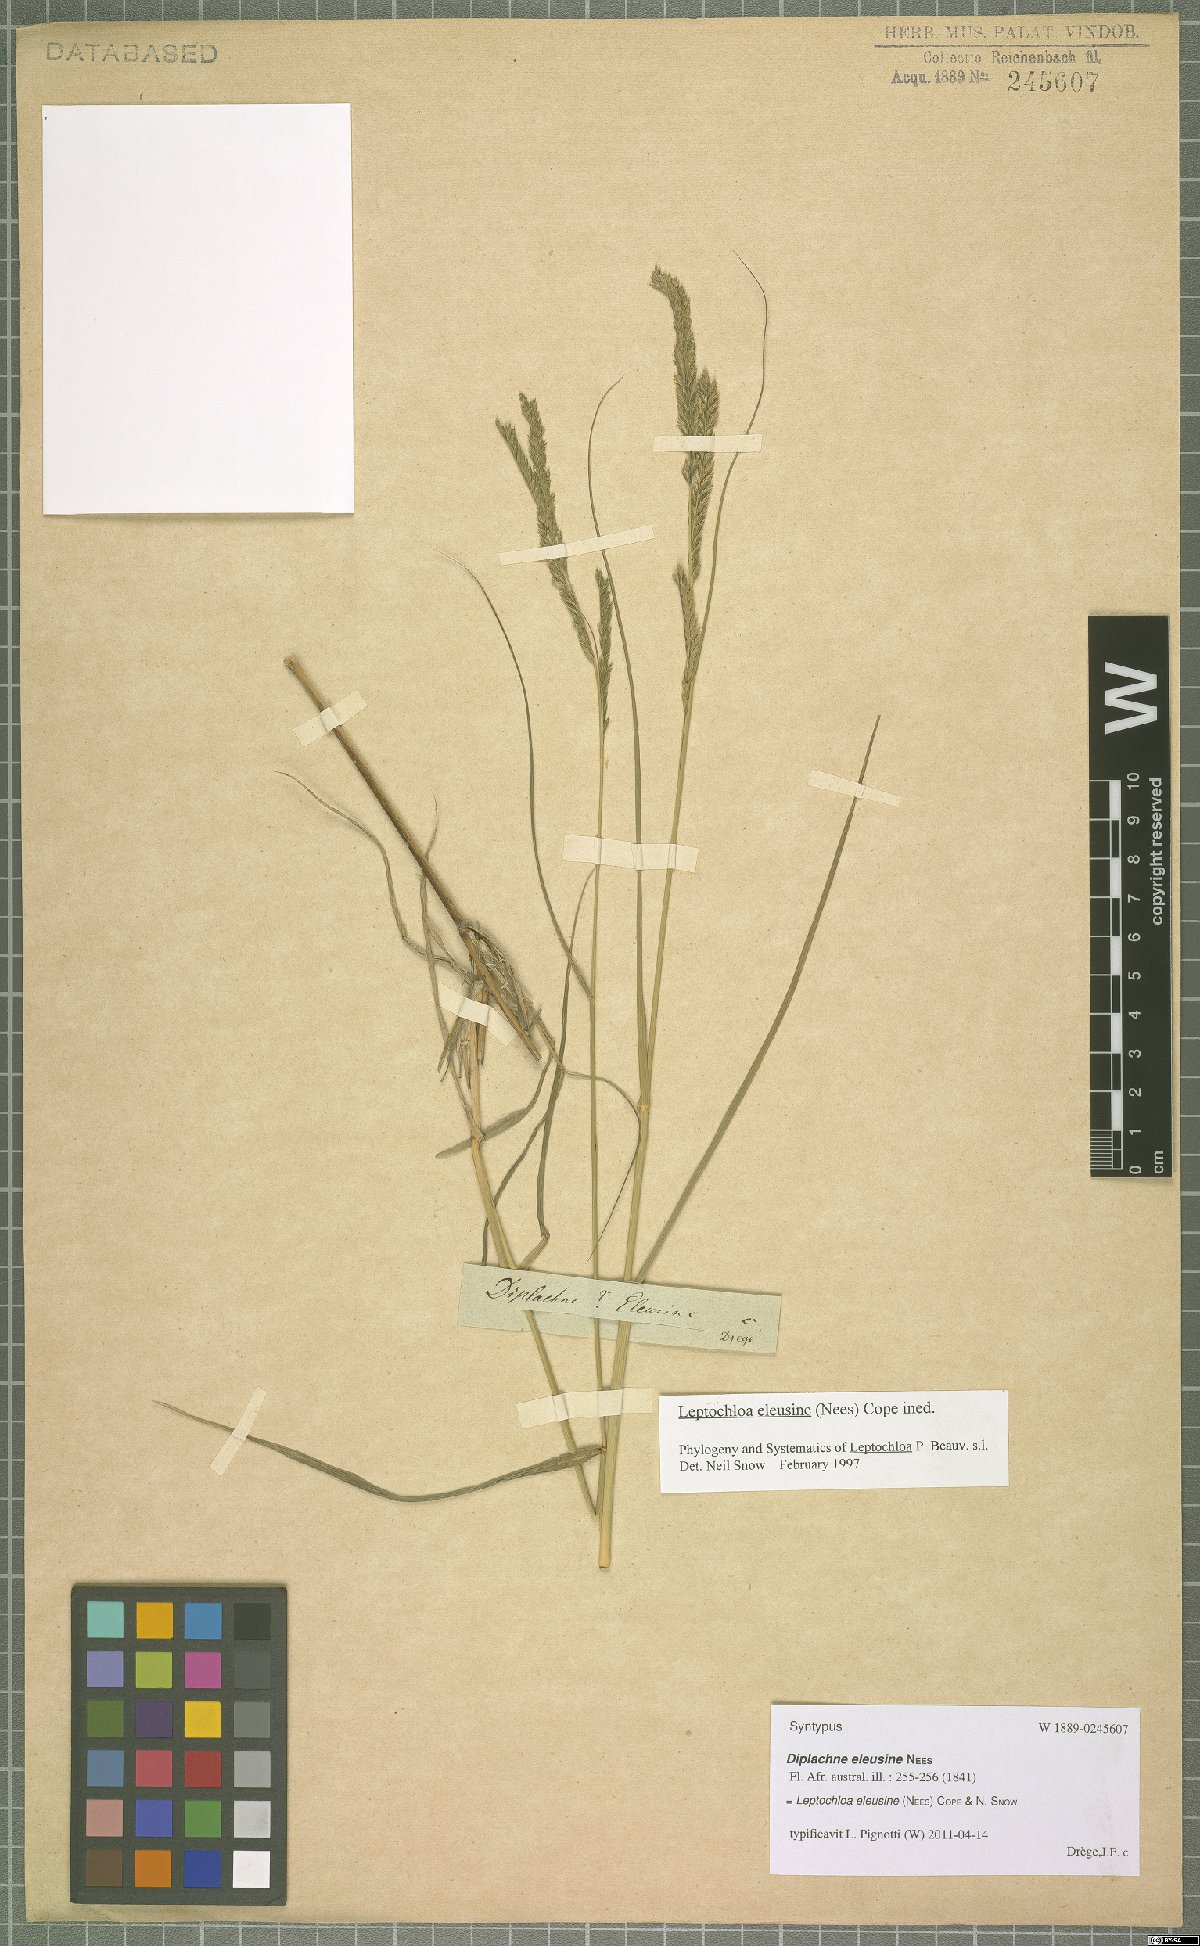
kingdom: Plantae
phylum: Tracheophyta
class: Liliopsida
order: Poales
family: Poaceae
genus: Disakisperma
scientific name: Disakisperma eleusine
